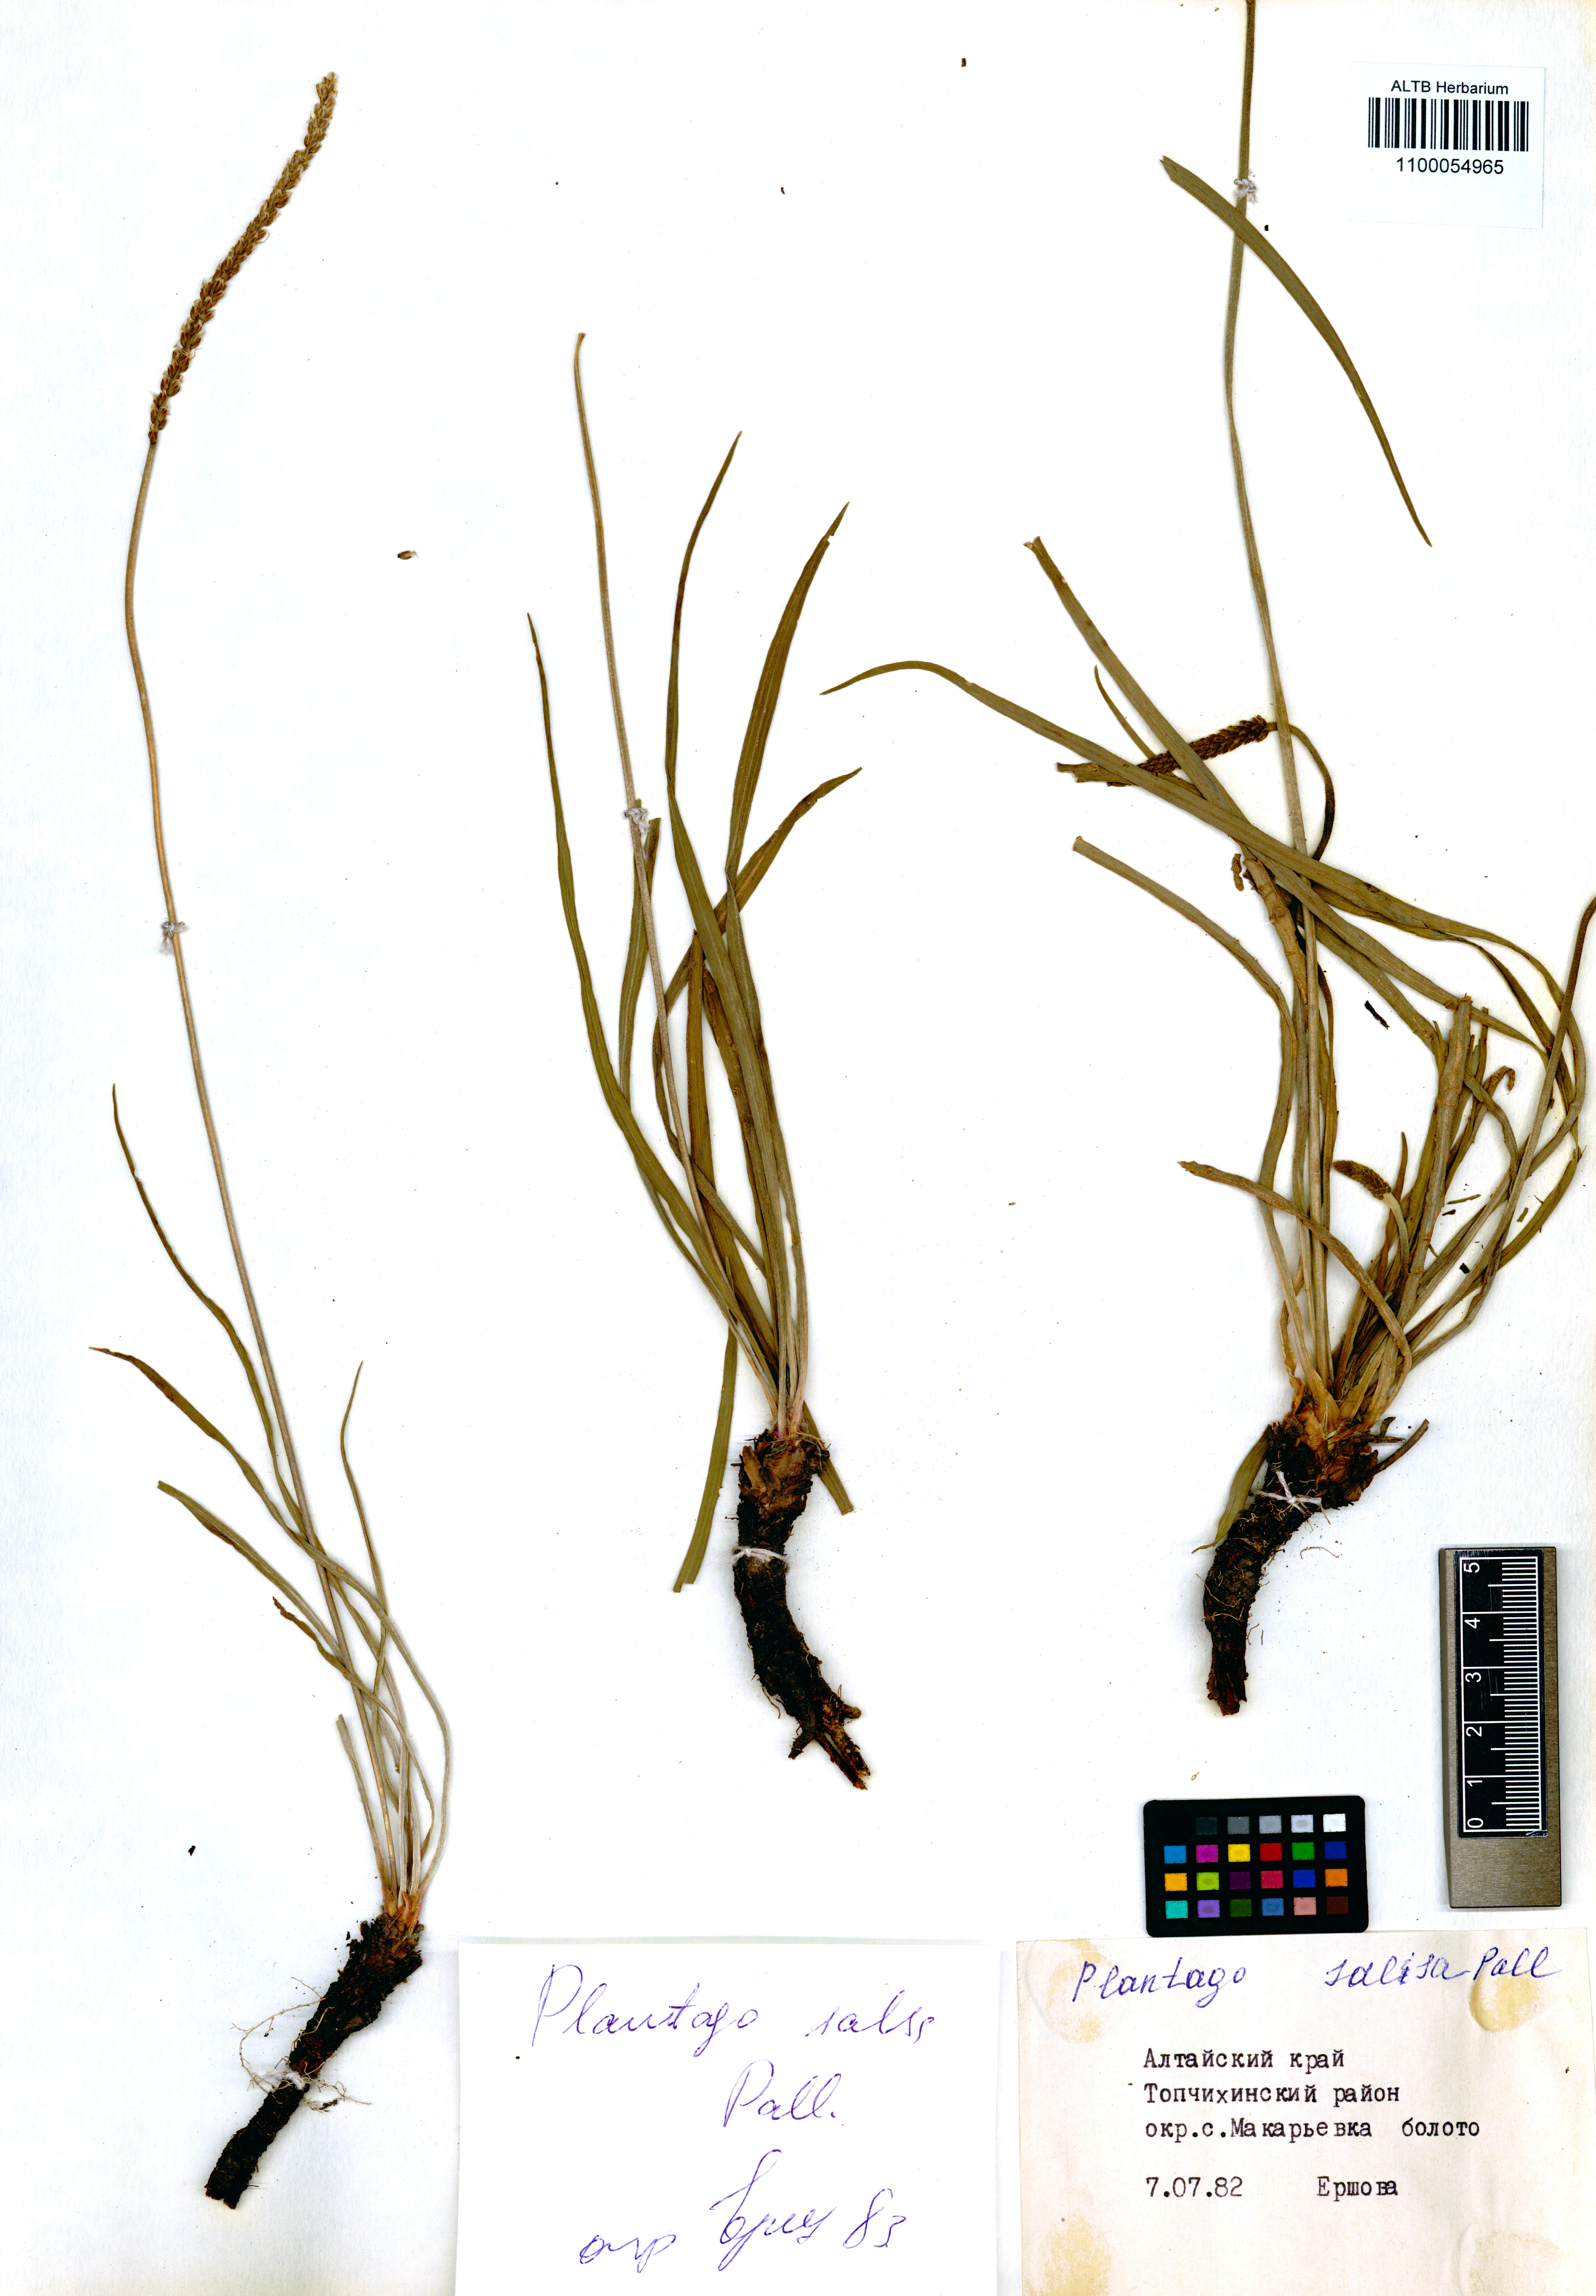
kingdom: Plantae
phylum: Tracheophyta
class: Magnoliopsida
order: Lamiales
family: Plantaginaceae
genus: Plantago
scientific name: Plantago salsa
